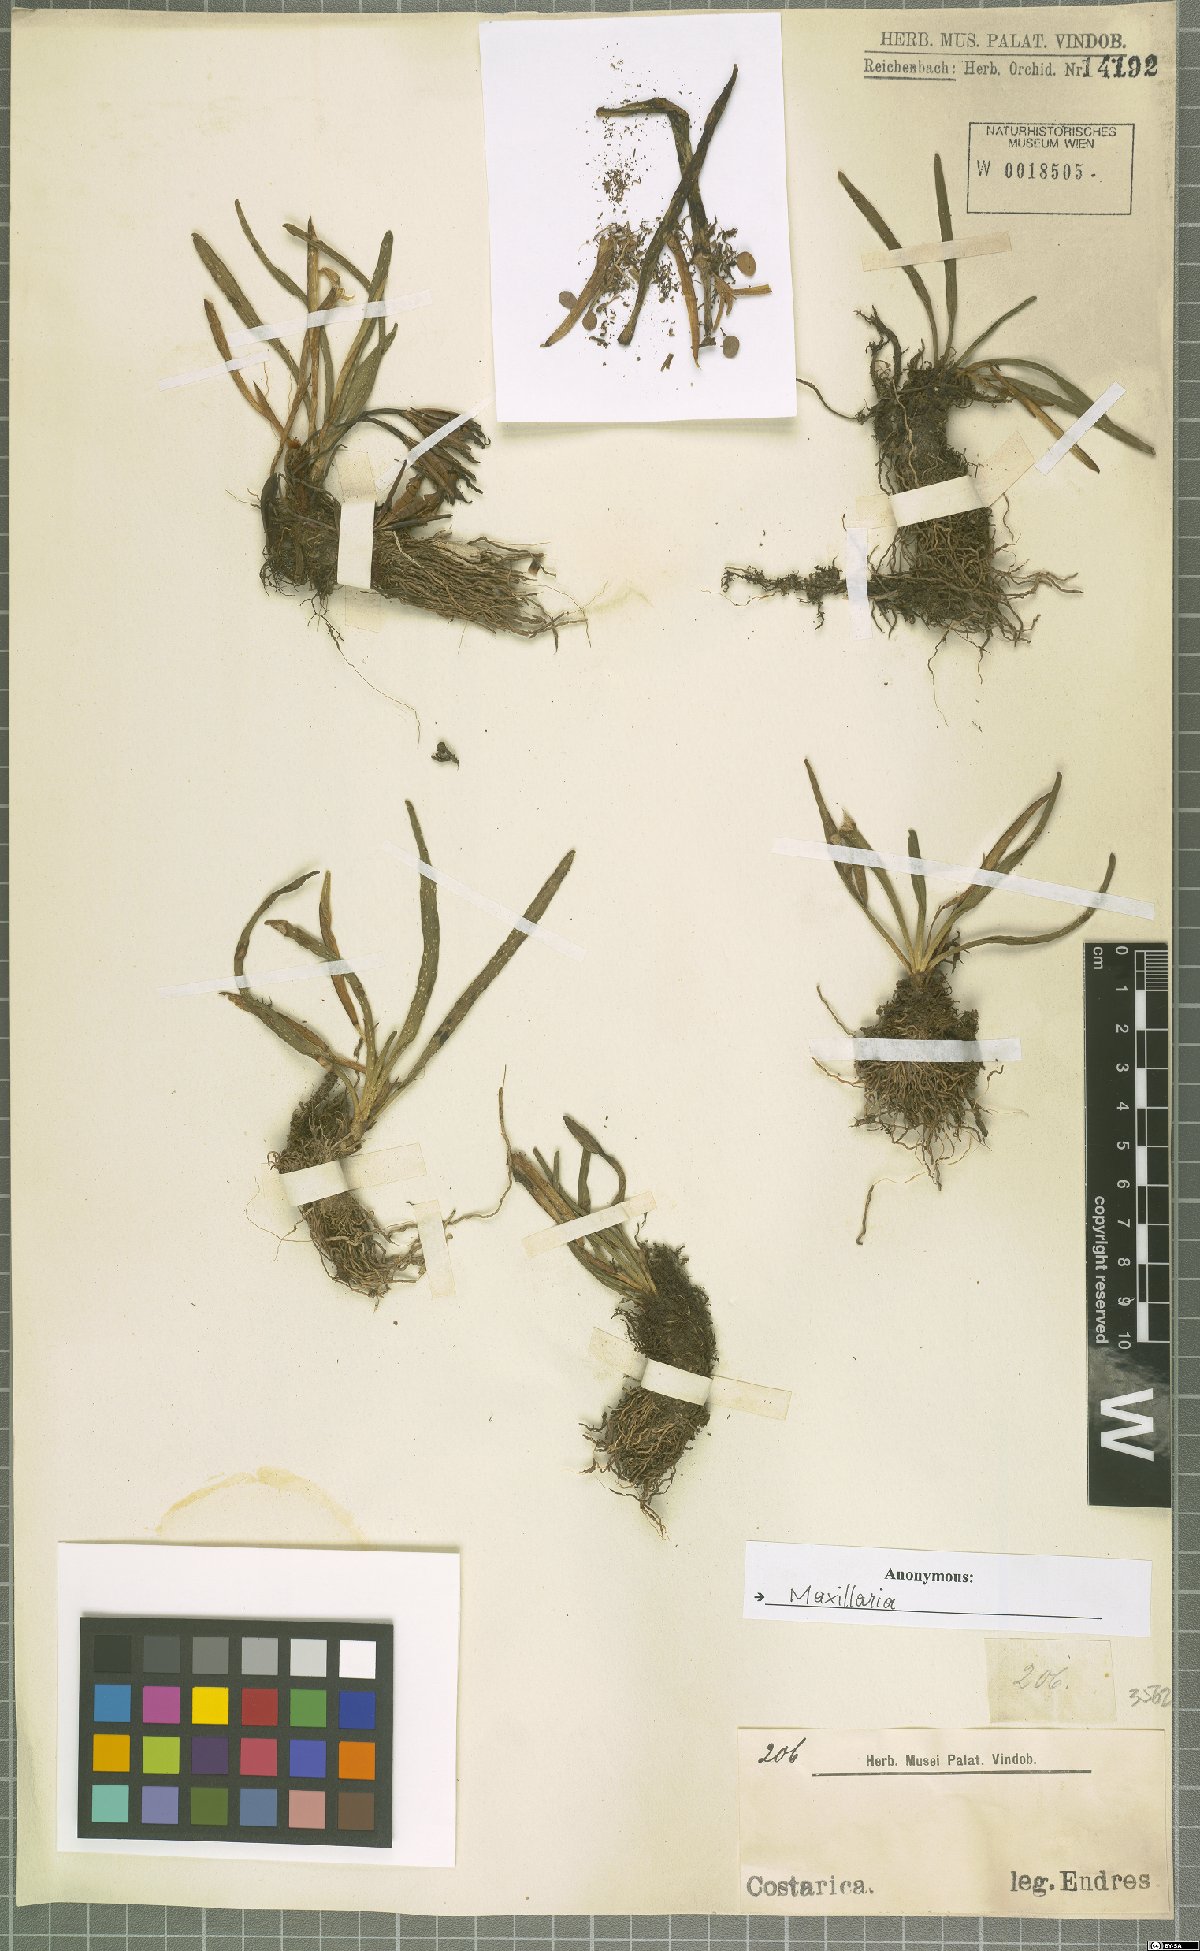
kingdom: Animalia
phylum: Arthropoda
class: Insecta
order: Hymenoptera
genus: Cryptocentrum
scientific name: Cryptocentrum
